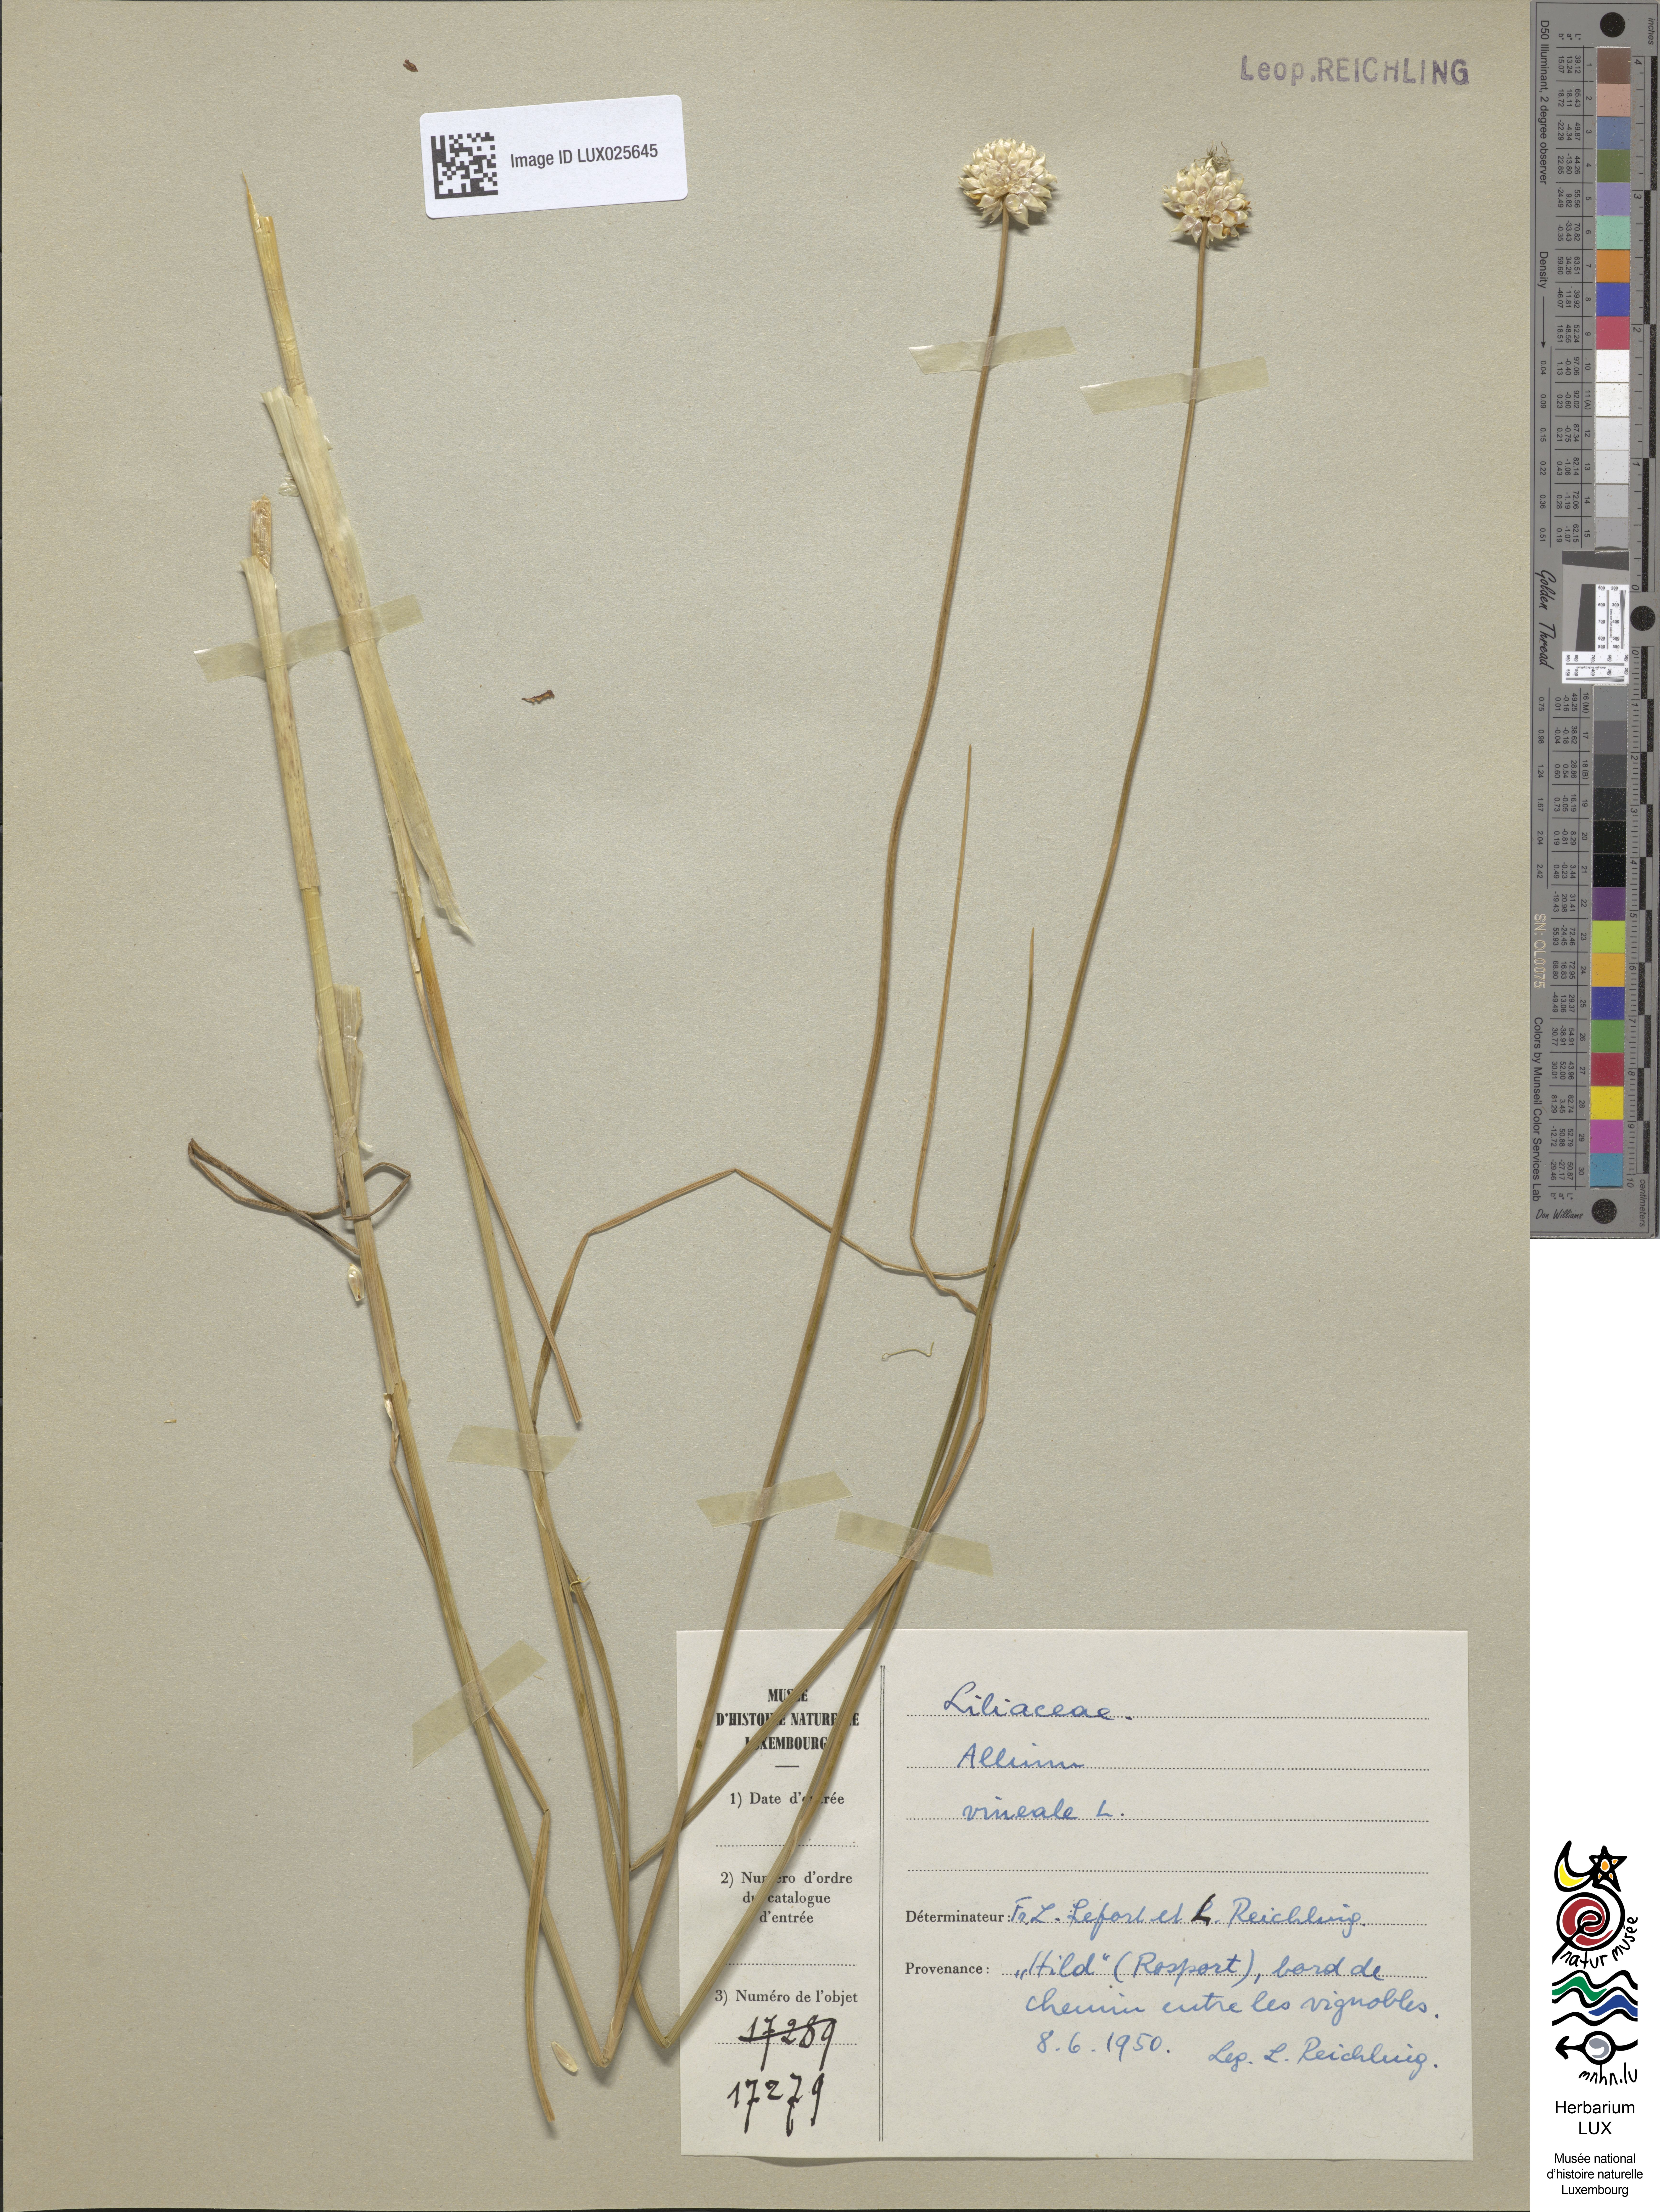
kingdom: Plantae
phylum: Tracheophyta
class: Liliopsida
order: Asparagales
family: Amaryllidaceae
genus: Allium
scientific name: Allium vineale
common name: Crow garlic
